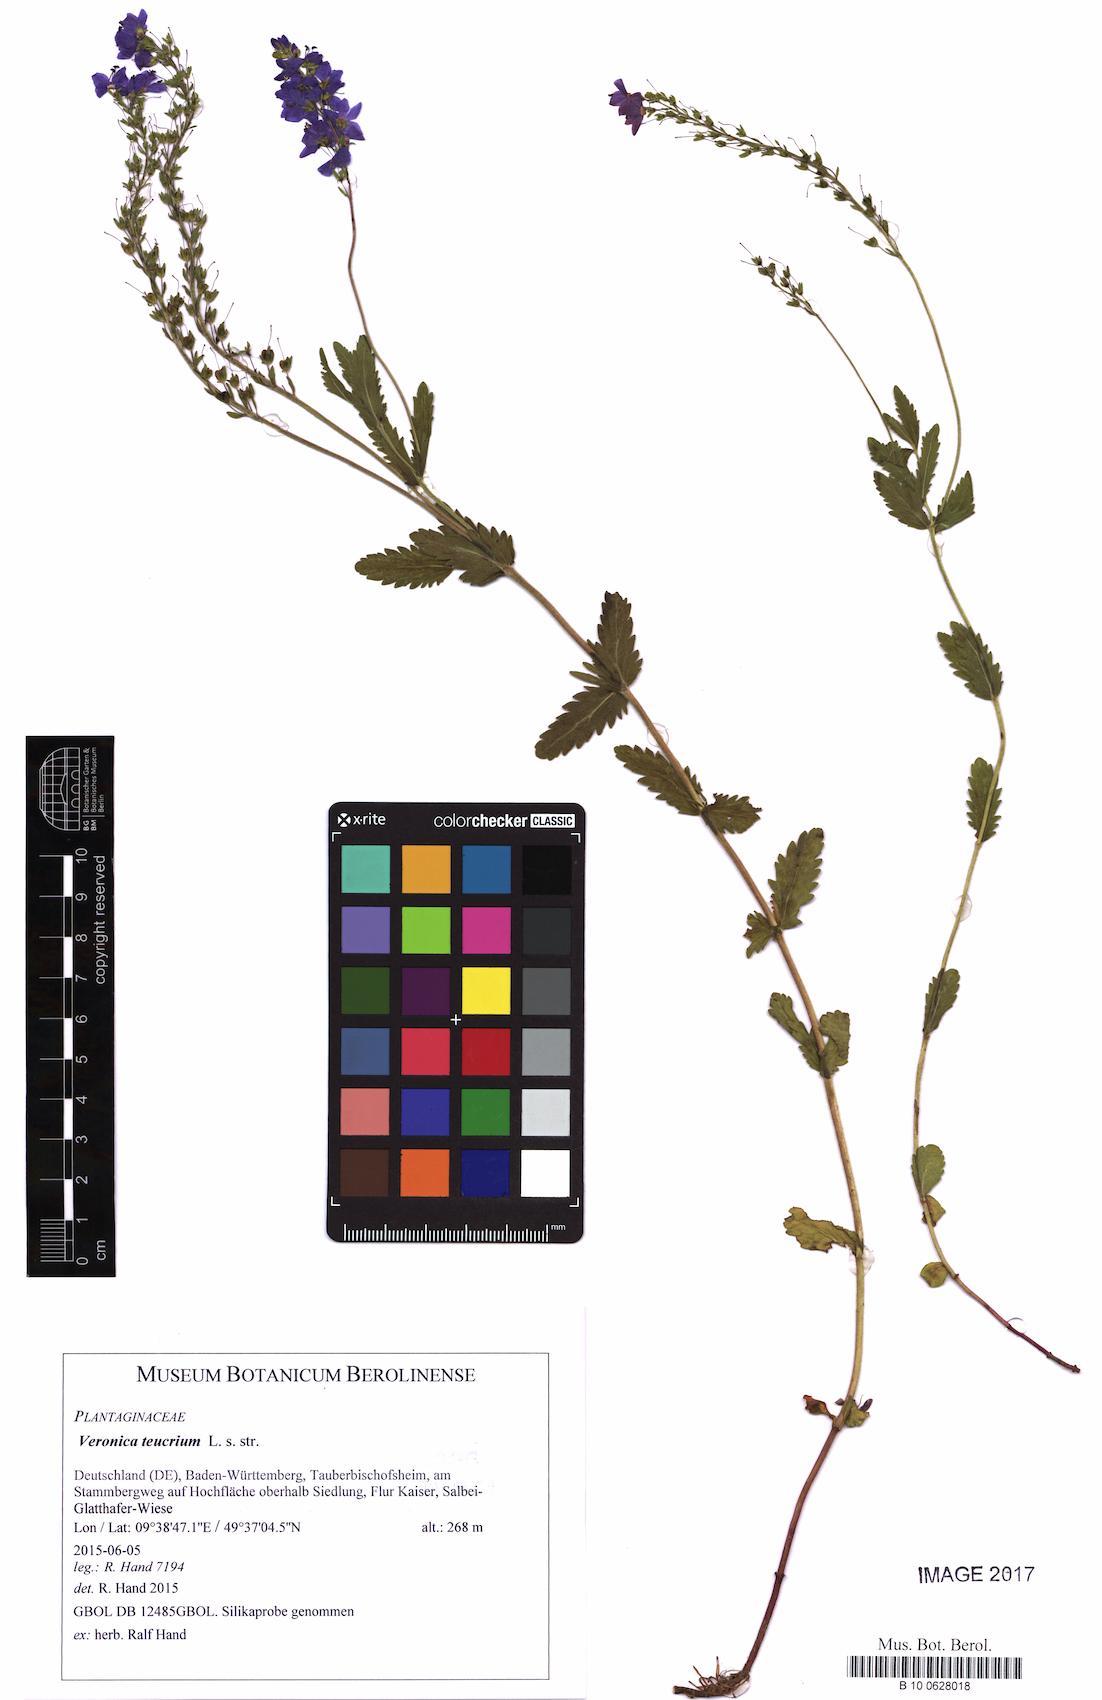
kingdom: Plantae
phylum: Tracheophyta
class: Magnoliopsida
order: Lamiales
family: Plantaginaceae
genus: Veronica
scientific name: Veronica teucrium
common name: Large speedwell
